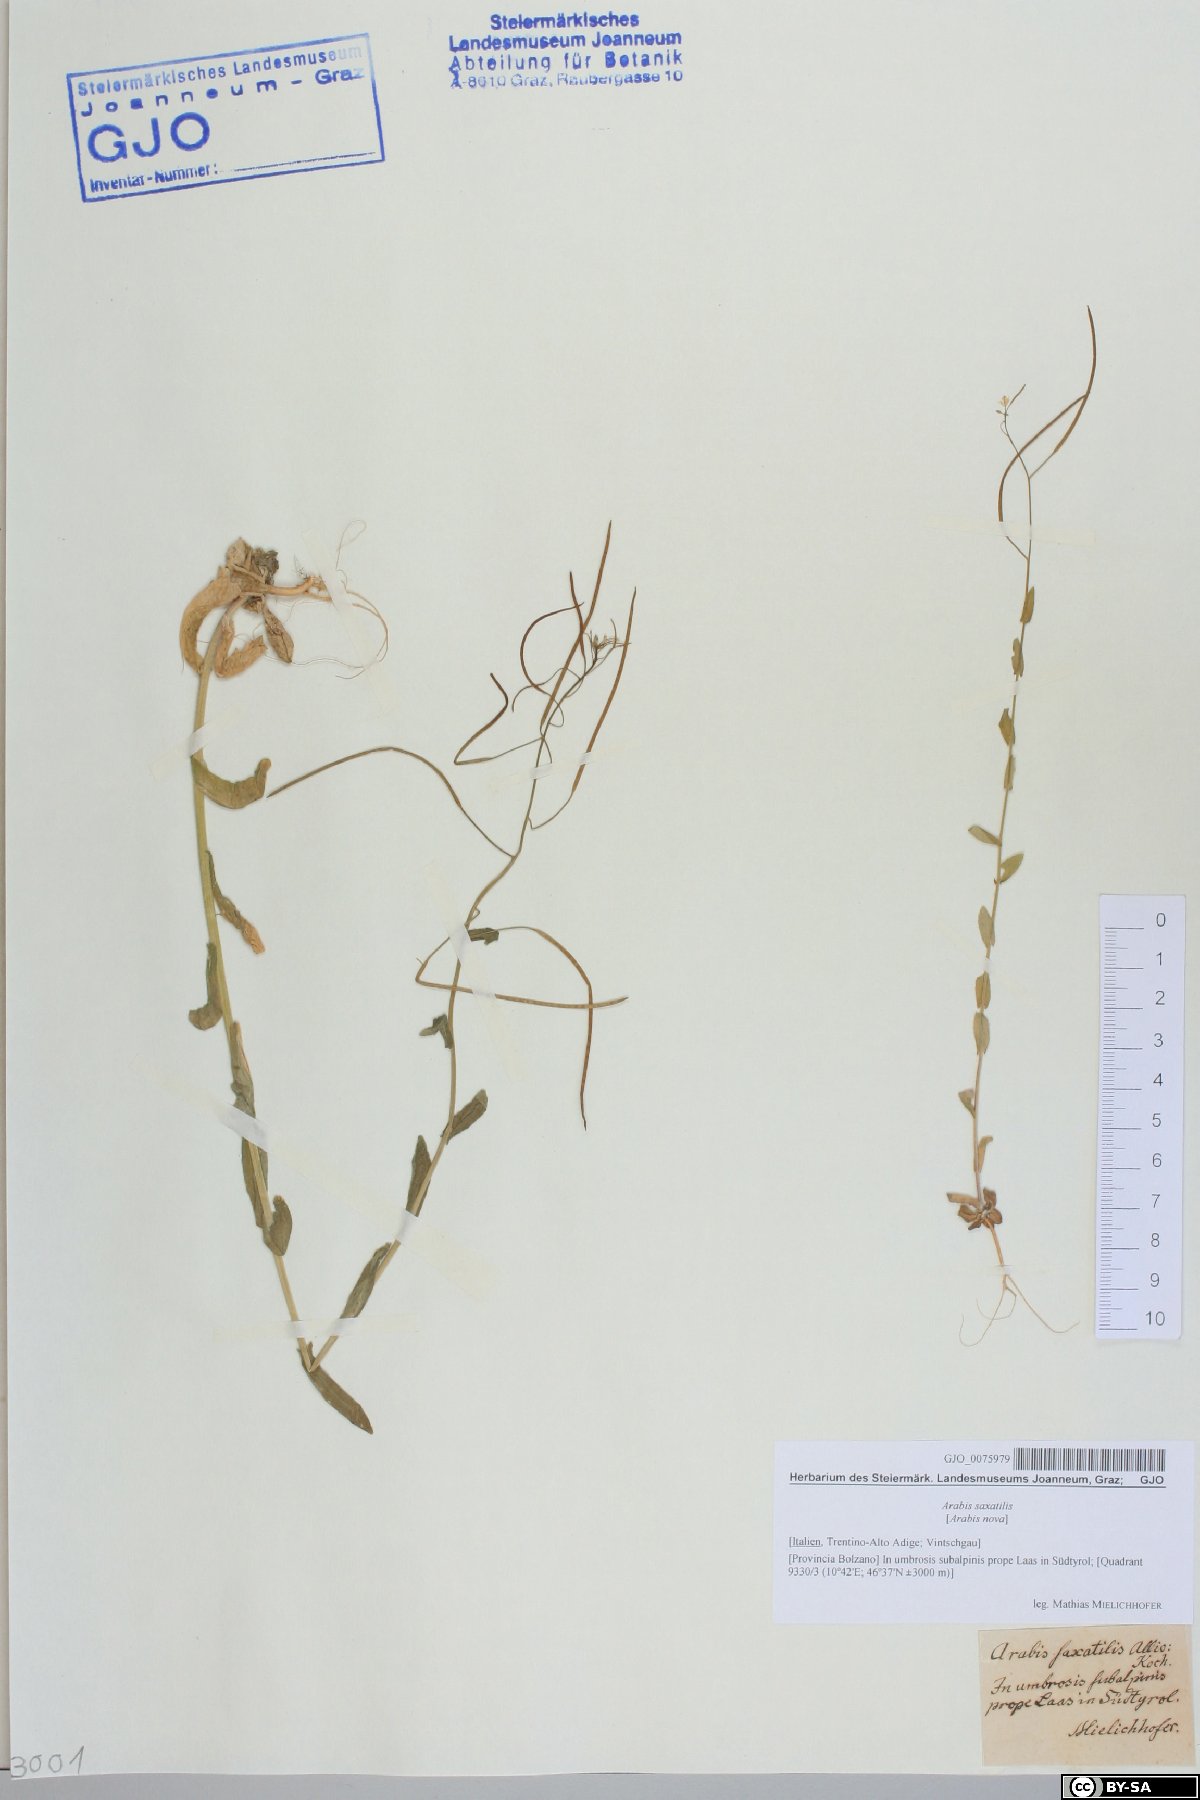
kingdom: Plantae
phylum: Tracheophyta
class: Magnoliopsida
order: Brassicales
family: Brassicaceae
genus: Arabis
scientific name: Arabis nova
